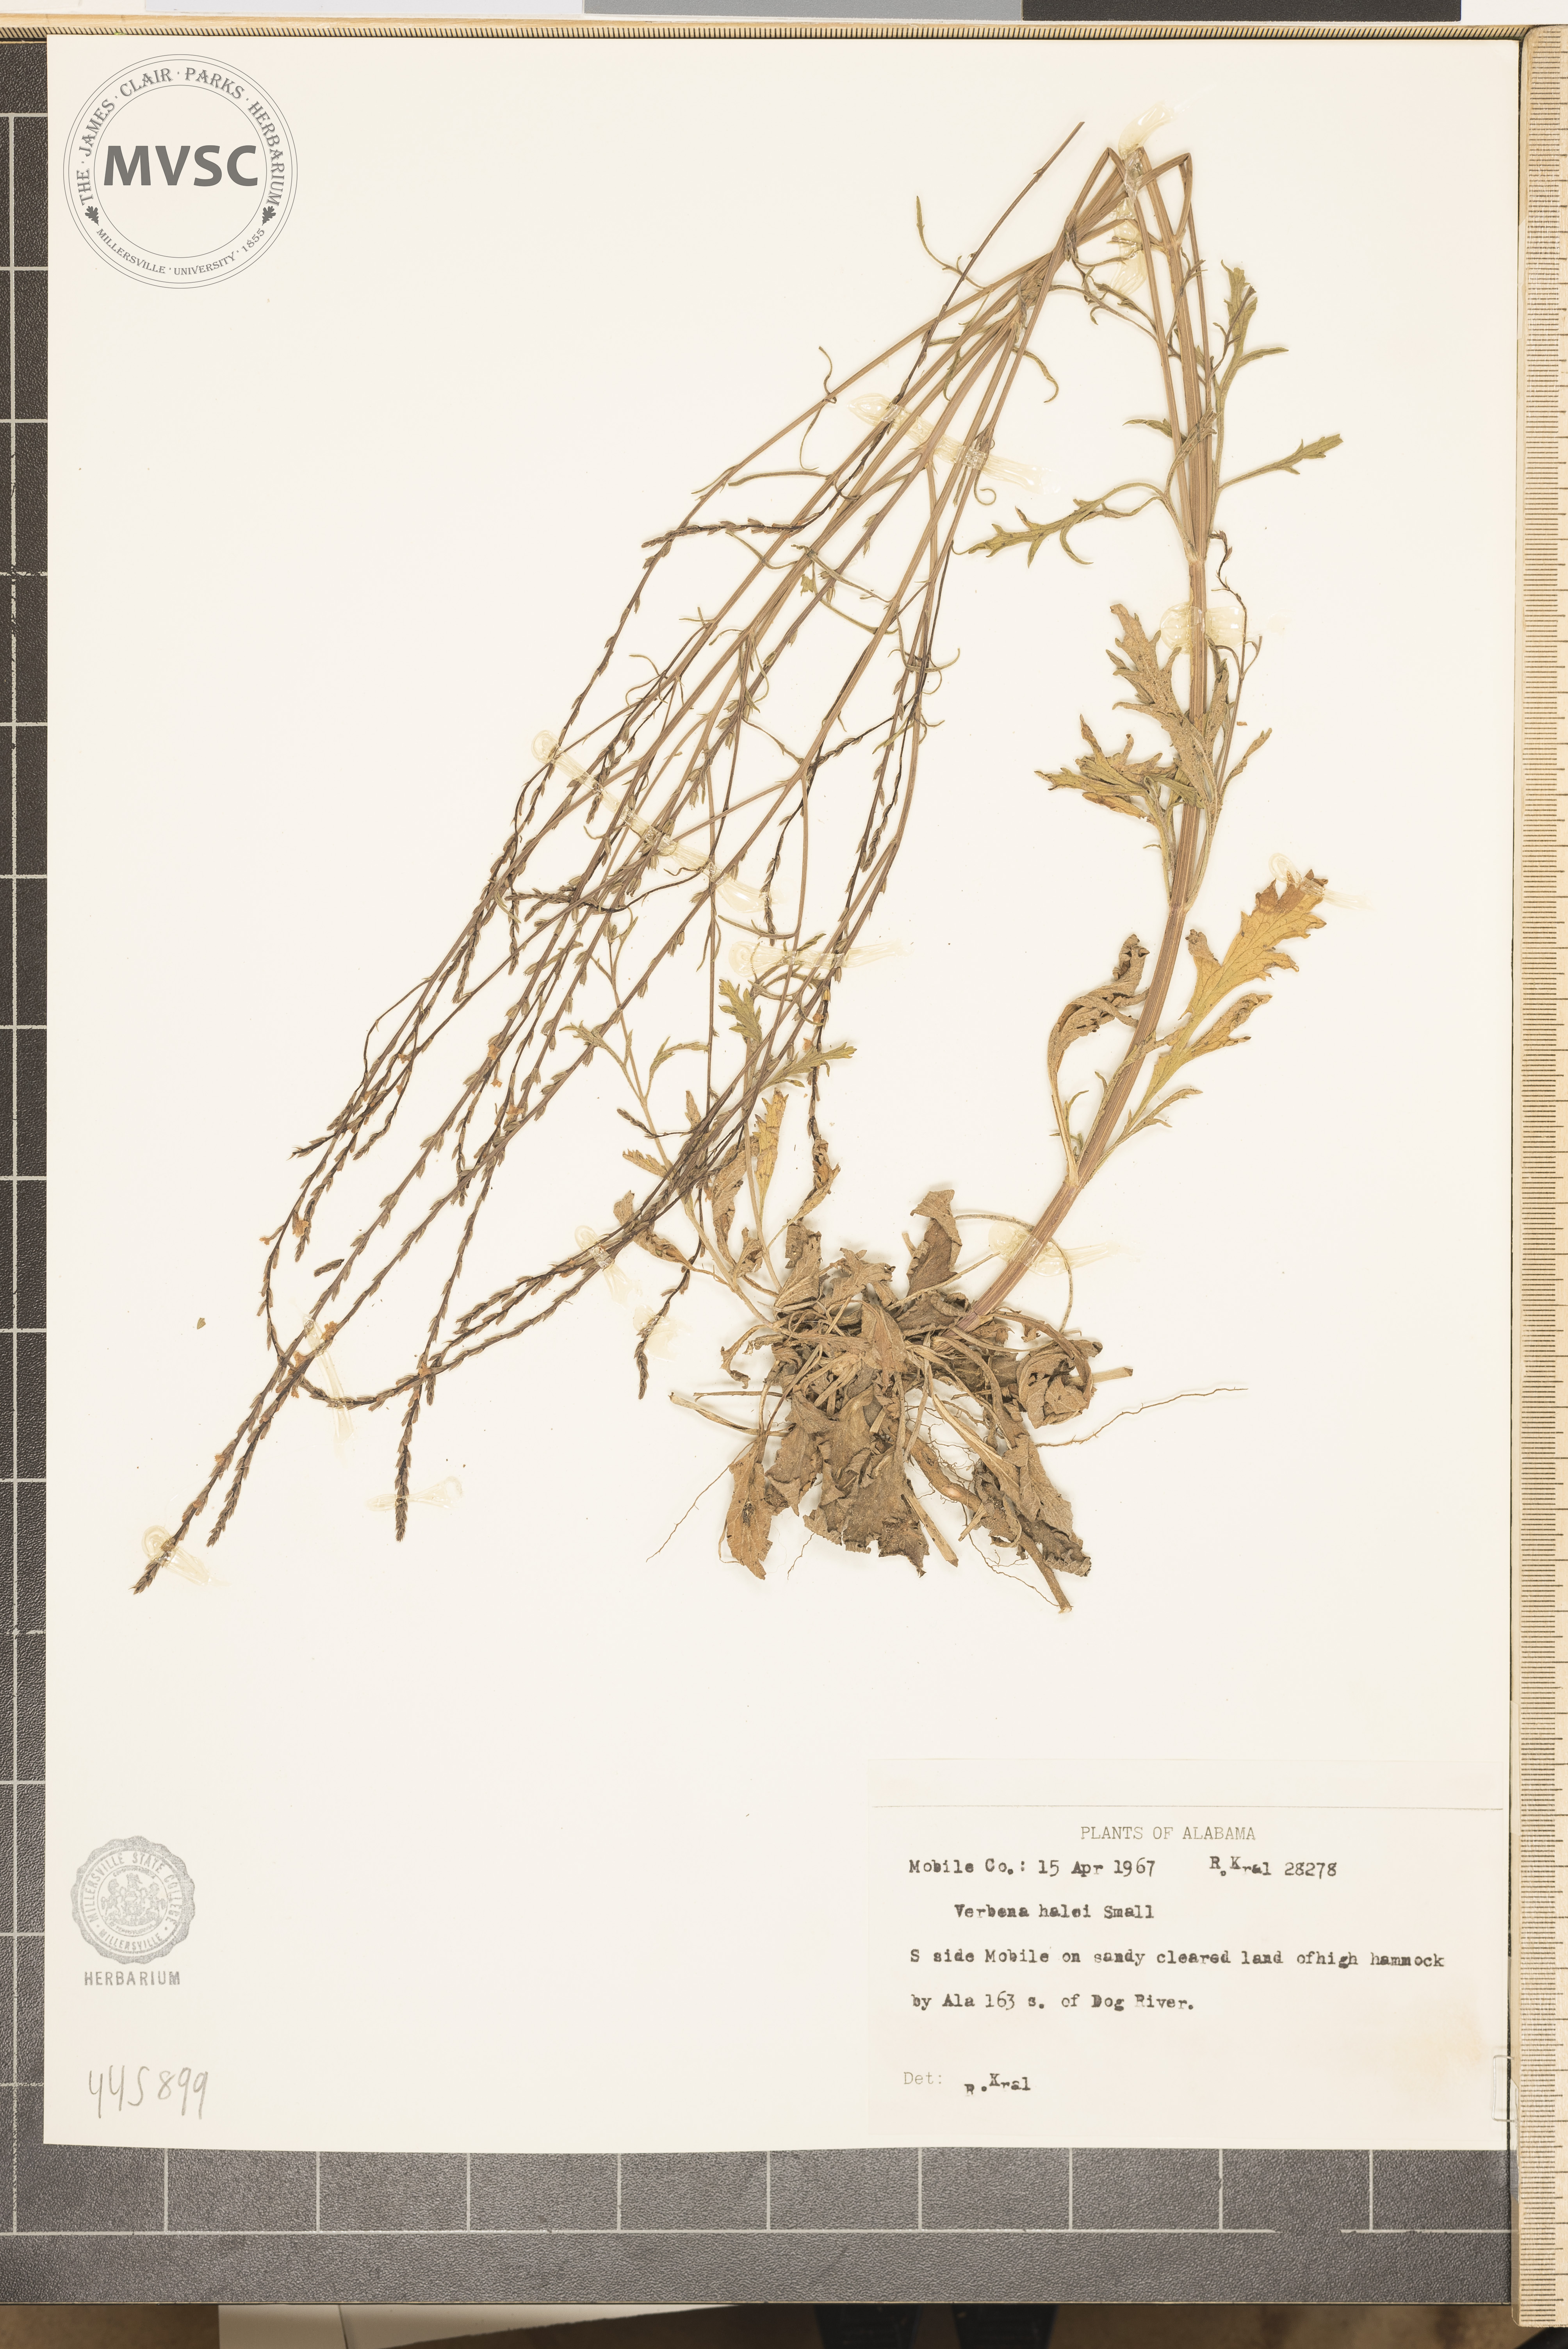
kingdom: Plantae
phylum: Tracheophyta
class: Magnoliopsida
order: Lamiales
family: Verbenaceae
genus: Verbena
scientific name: Verbena halei
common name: Texas vervain
